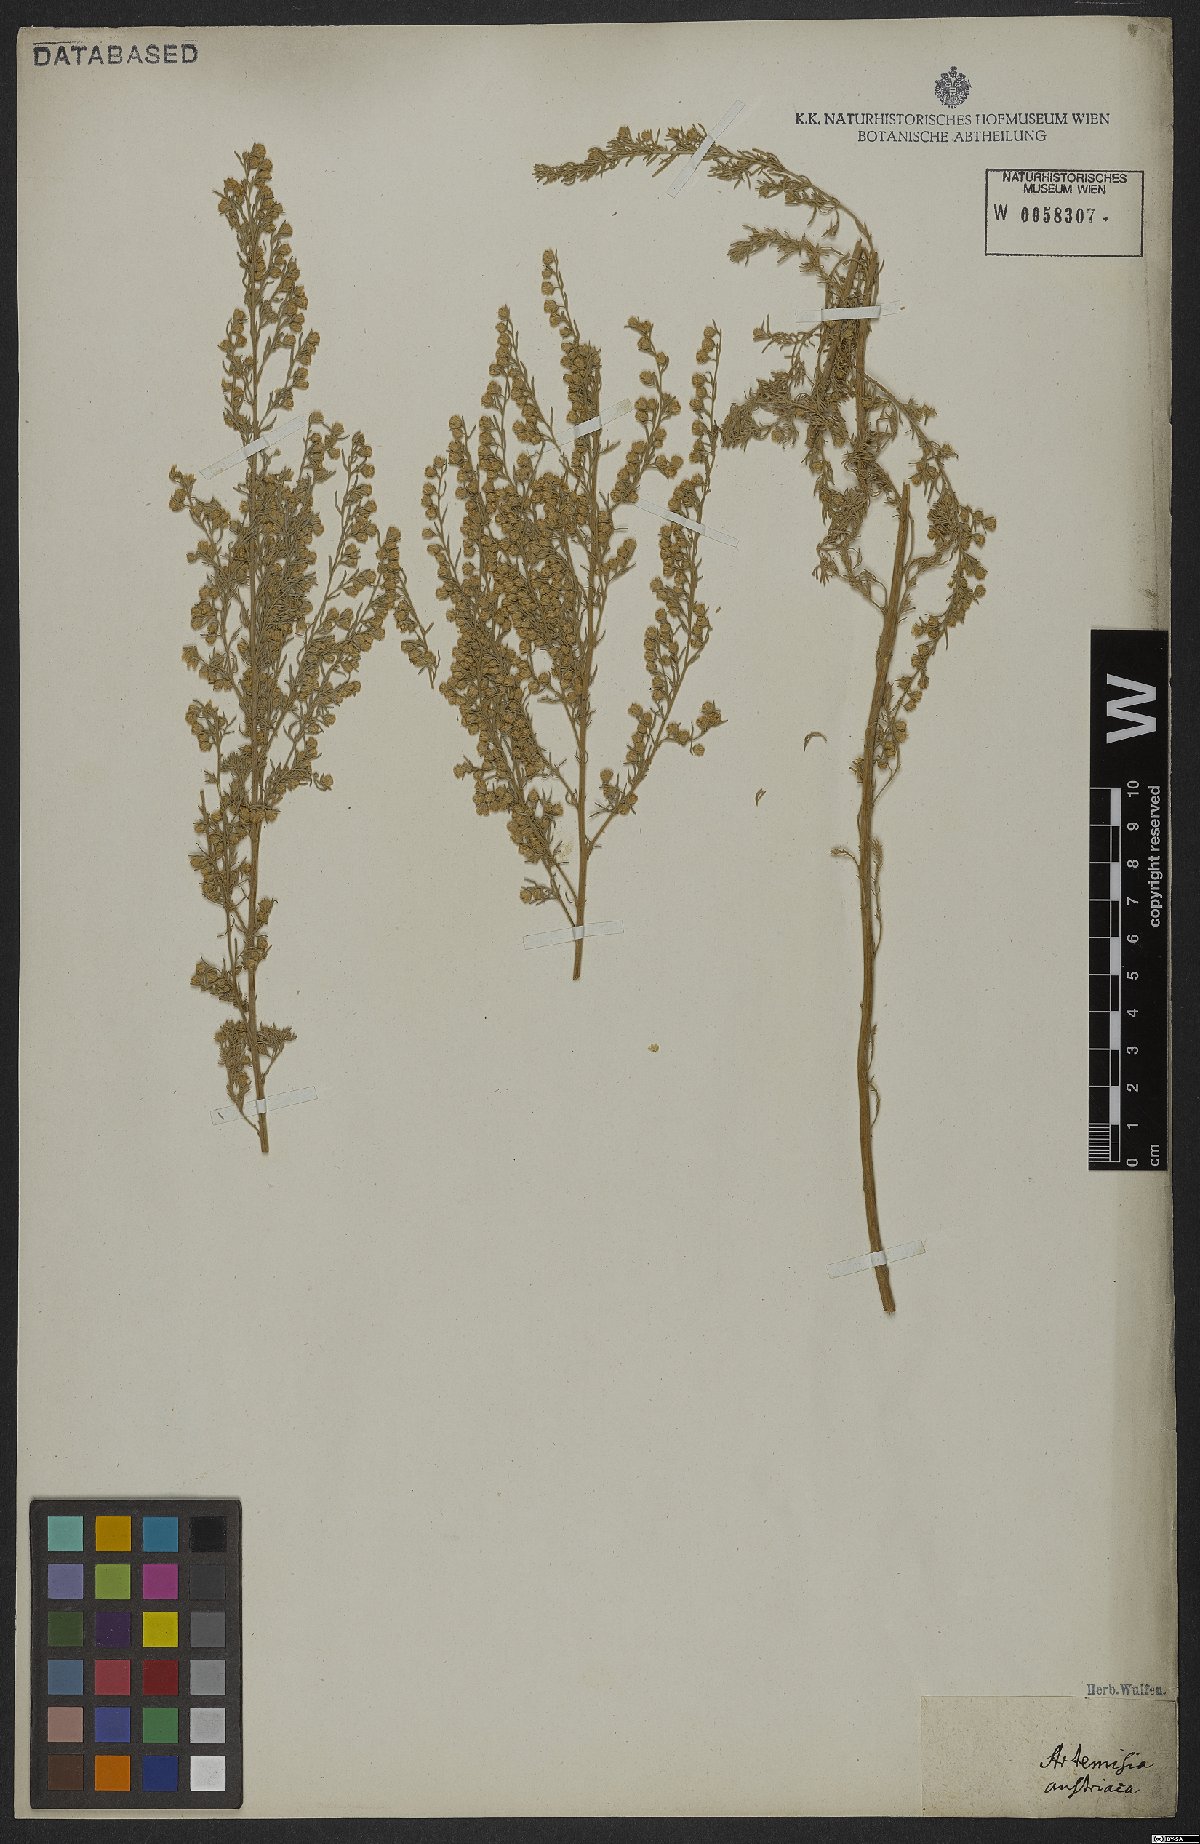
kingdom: Plantae
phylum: Tracheophyta
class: Magnoliopsida
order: Asterales
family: Asteraceae
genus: Artemisia
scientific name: Artemisia austriaca
